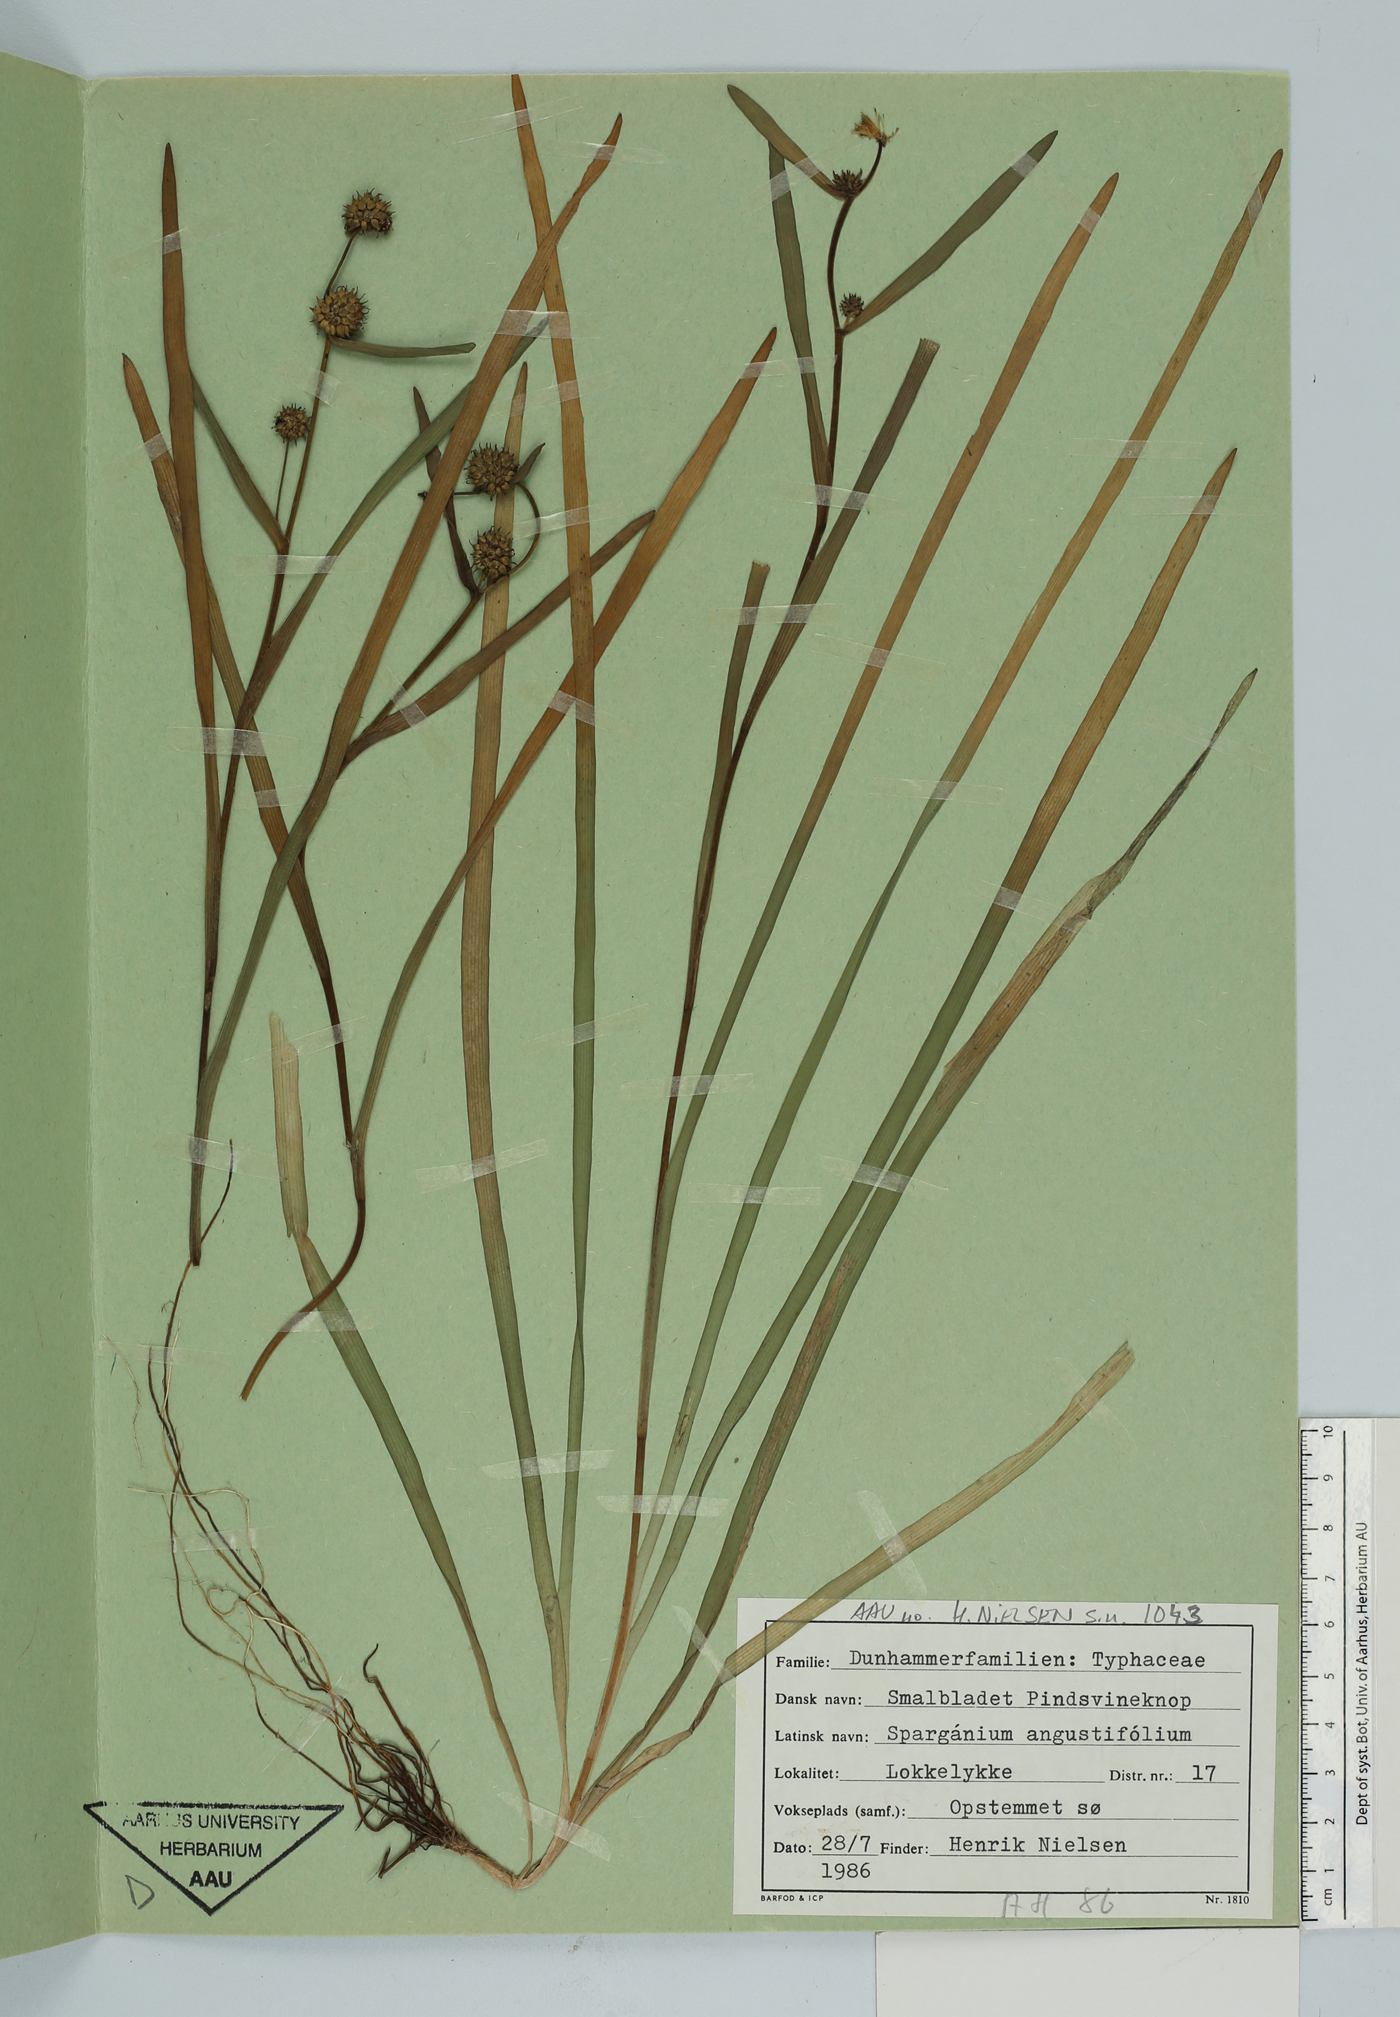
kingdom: Plantae
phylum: Tracheophyta
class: Liliopsida
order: Poales
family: Typhaceae
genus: Sparganium
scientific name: Sparganium angustifolium
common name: Floating bur-reed
